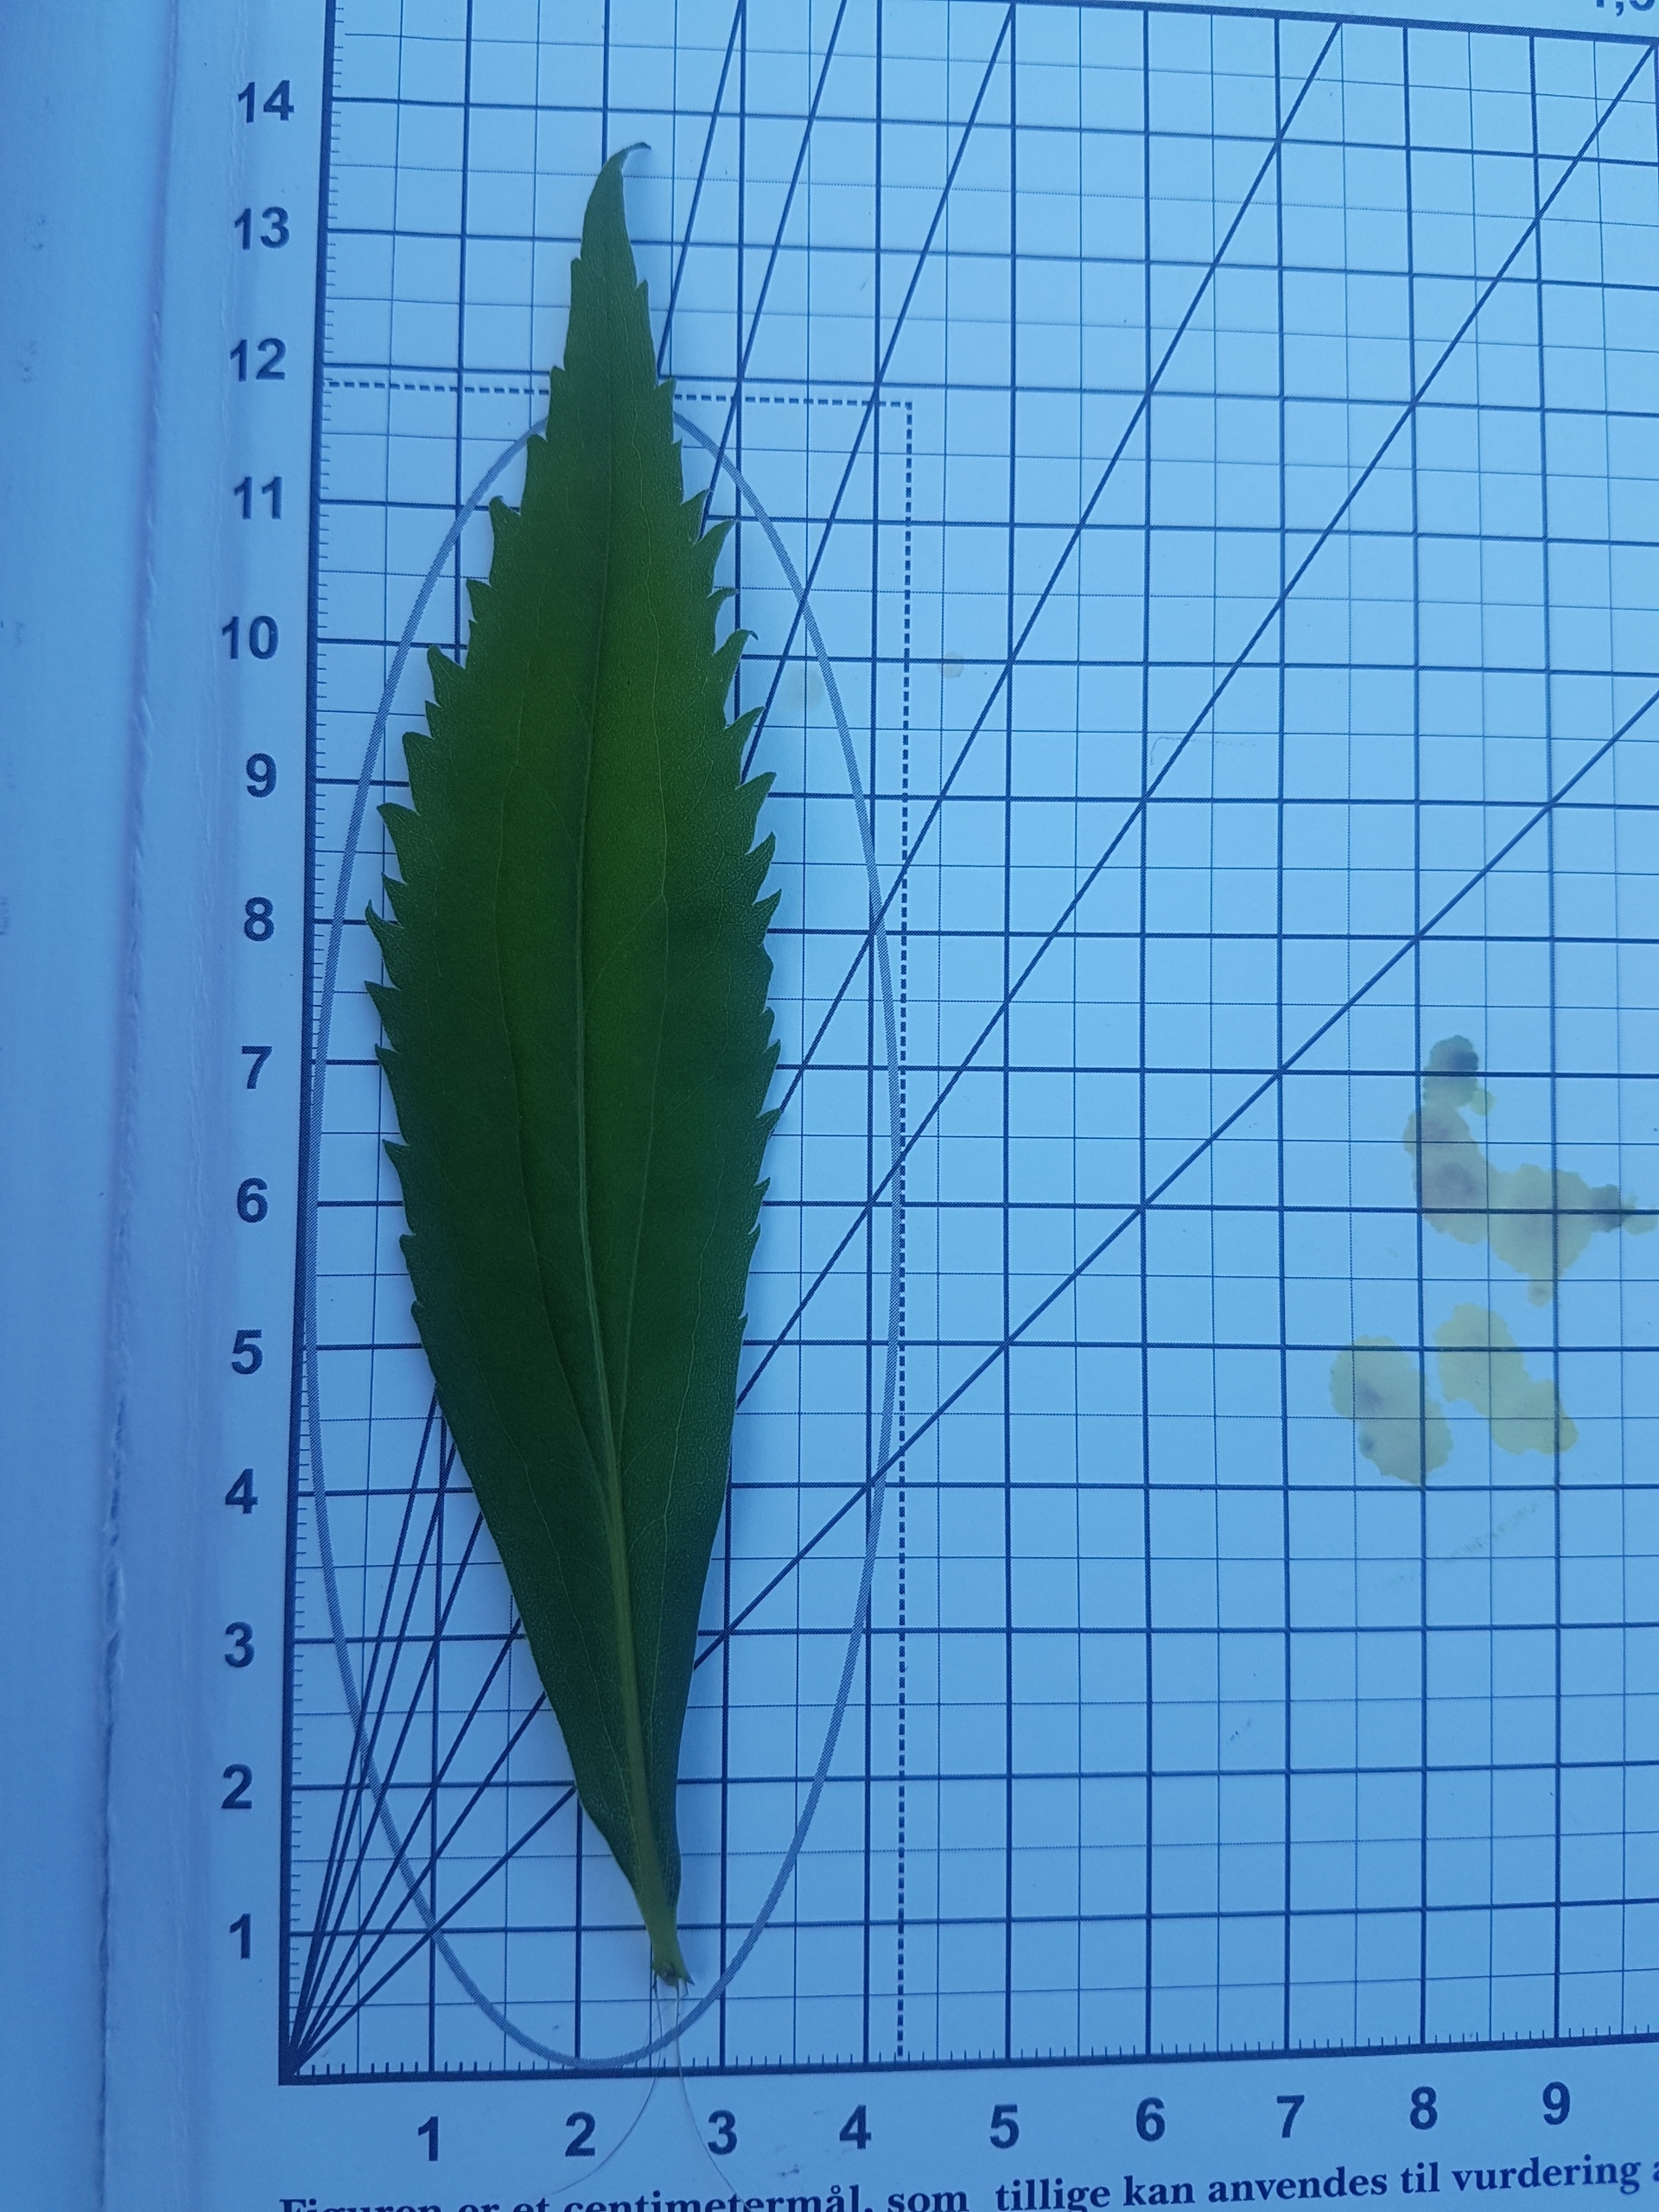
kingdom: Plantae
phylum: Tracheophyta
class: Magnoliopsida
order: Asterales
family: Asteraceae
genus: Solidago
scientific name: Solidago gigantea
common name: Sildig gyldenris
